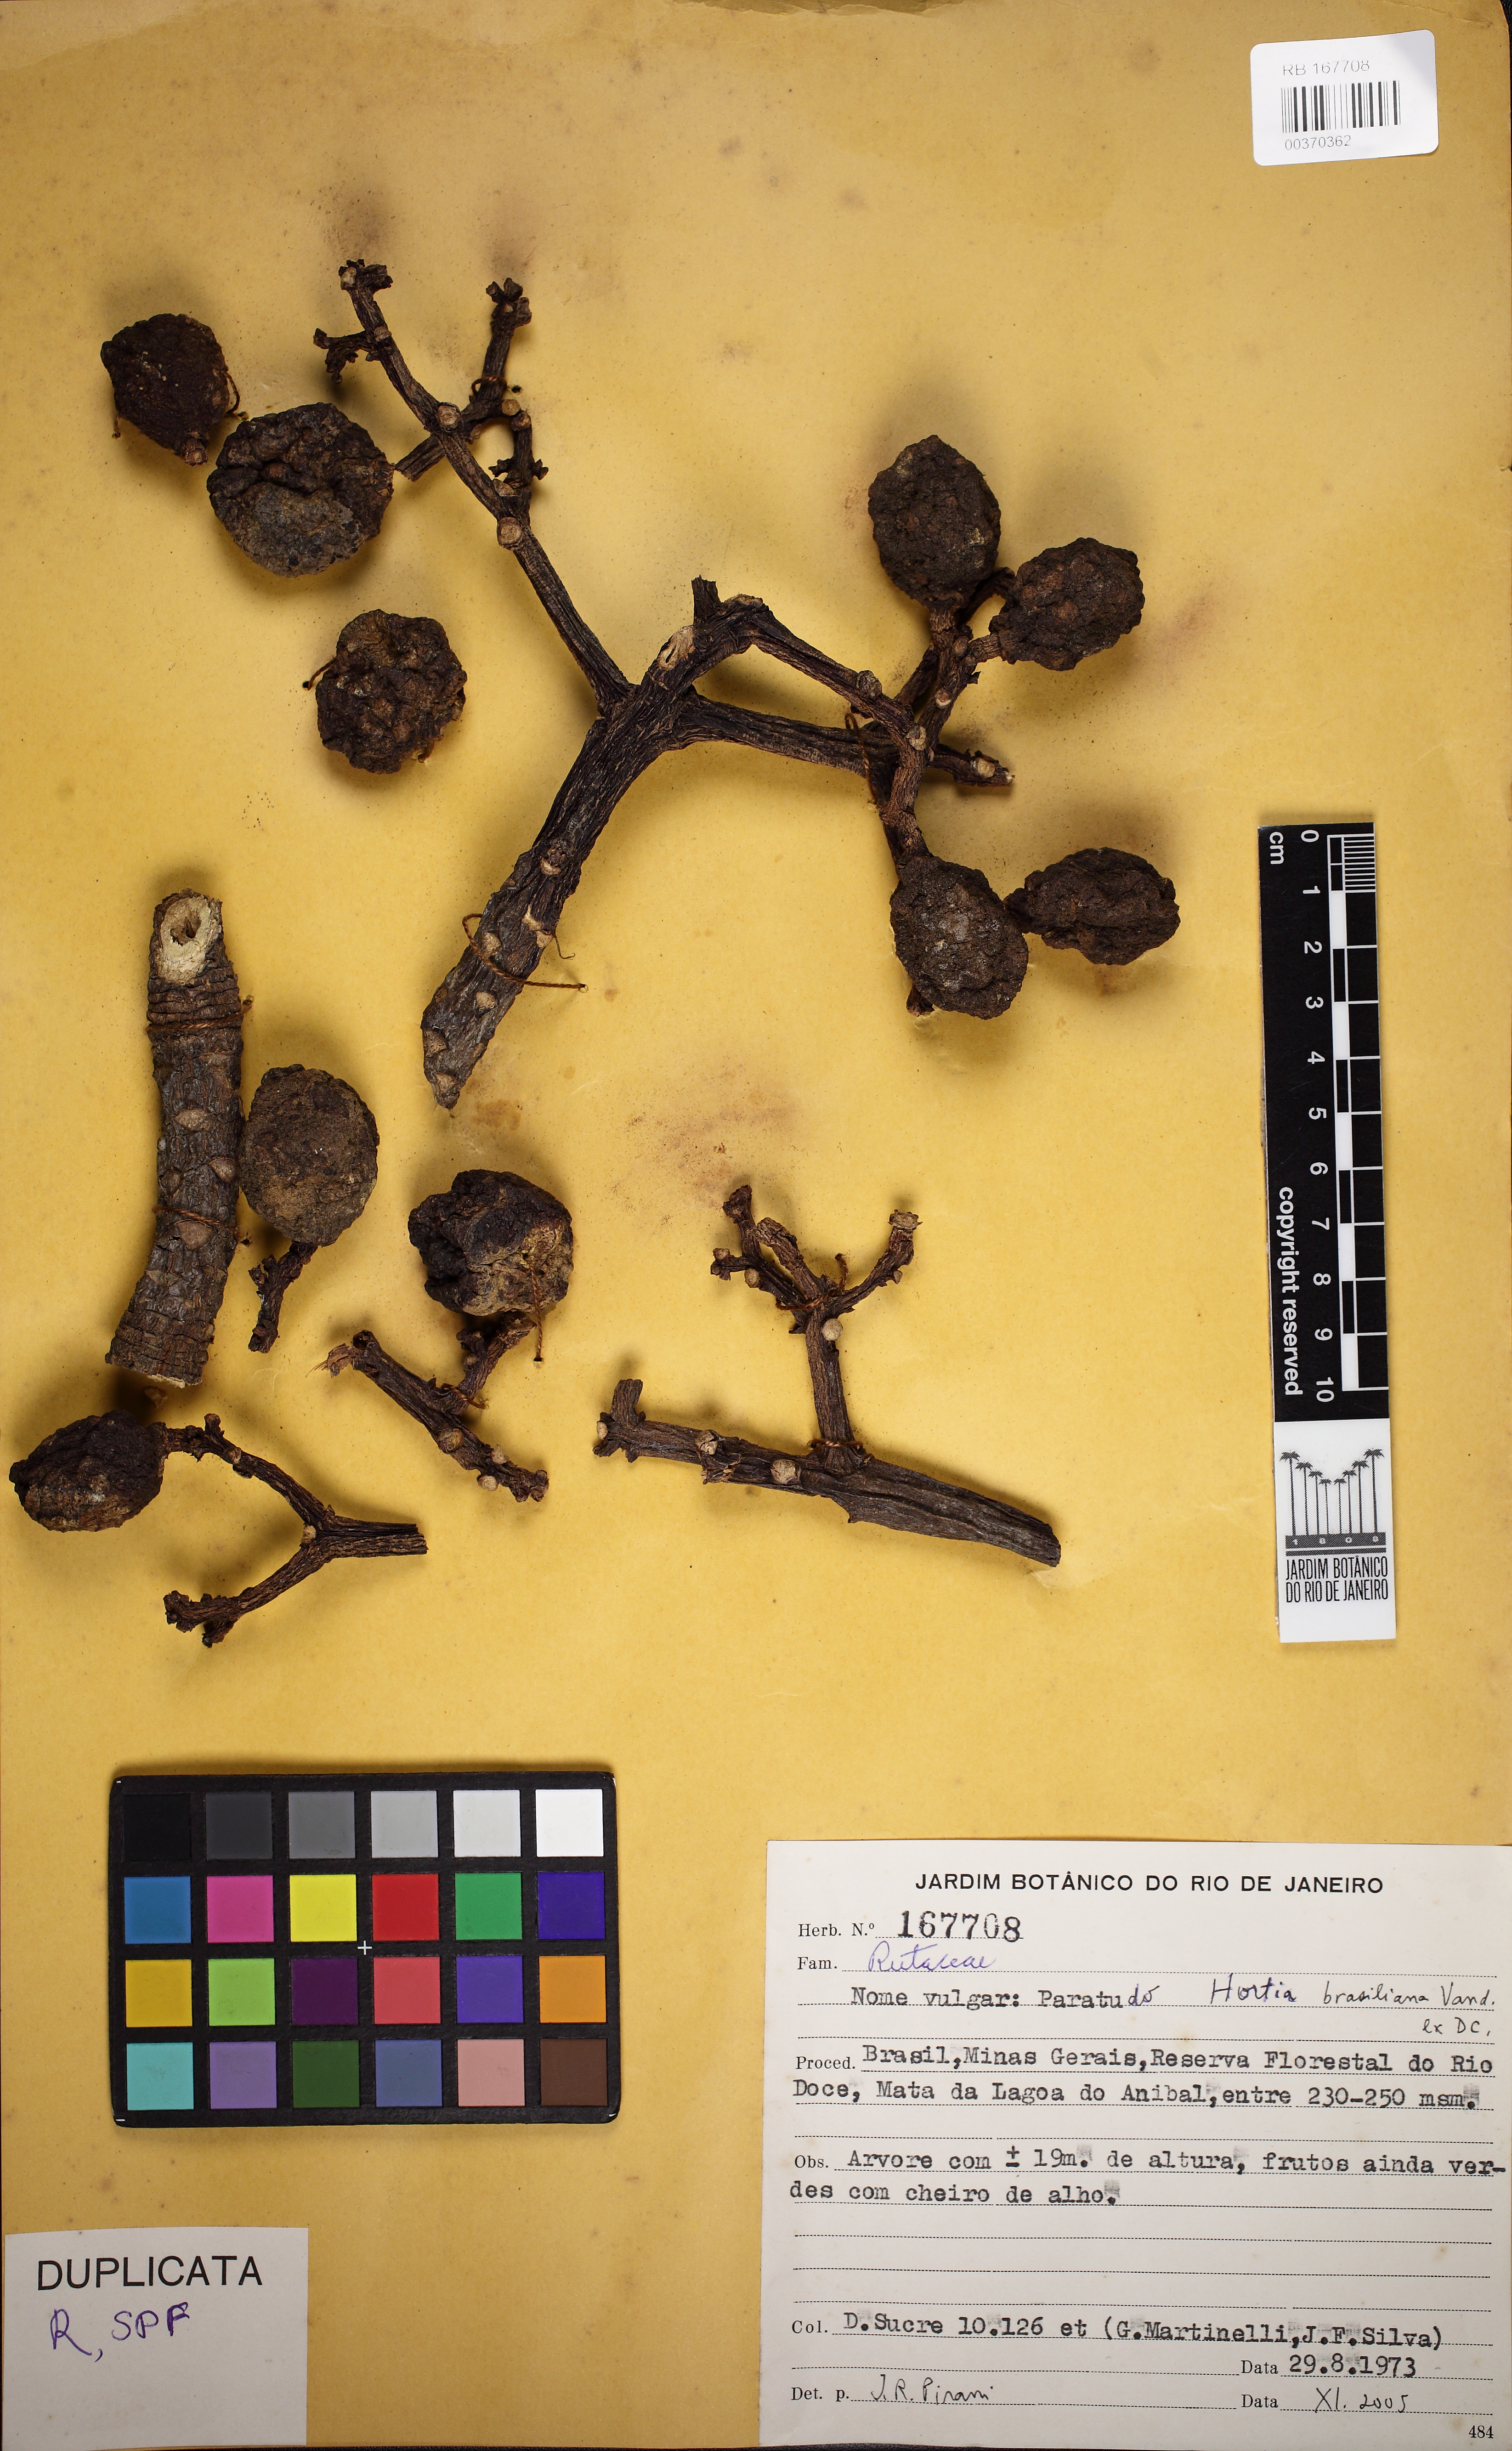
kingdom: Plantae
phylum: Tracheophyta
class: Magnoliopsida
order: Sapindales
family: Rutaceae
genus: Hortia
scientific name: Hortia brasiliana
